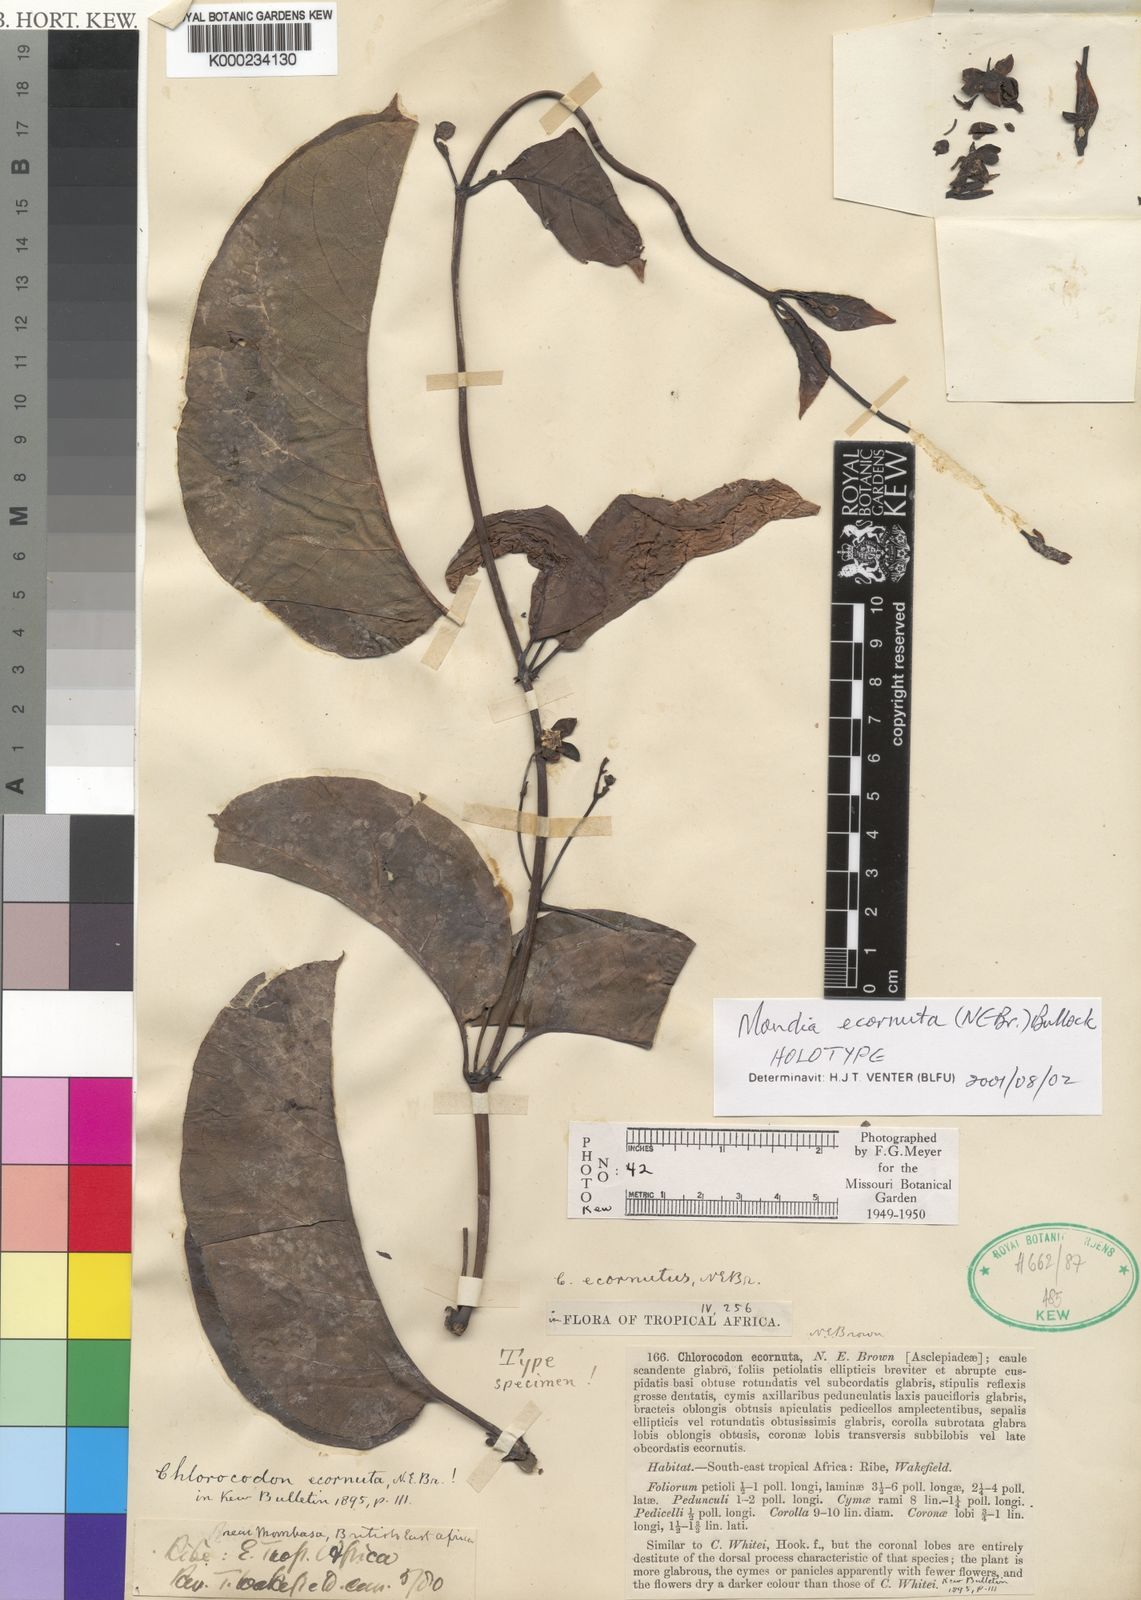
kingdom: Plantae
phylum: Tracheophyta
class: Magnoliopsida
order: Gentianales
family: Apocynaceae
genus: Mondia
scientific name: Mondia ecornuta
